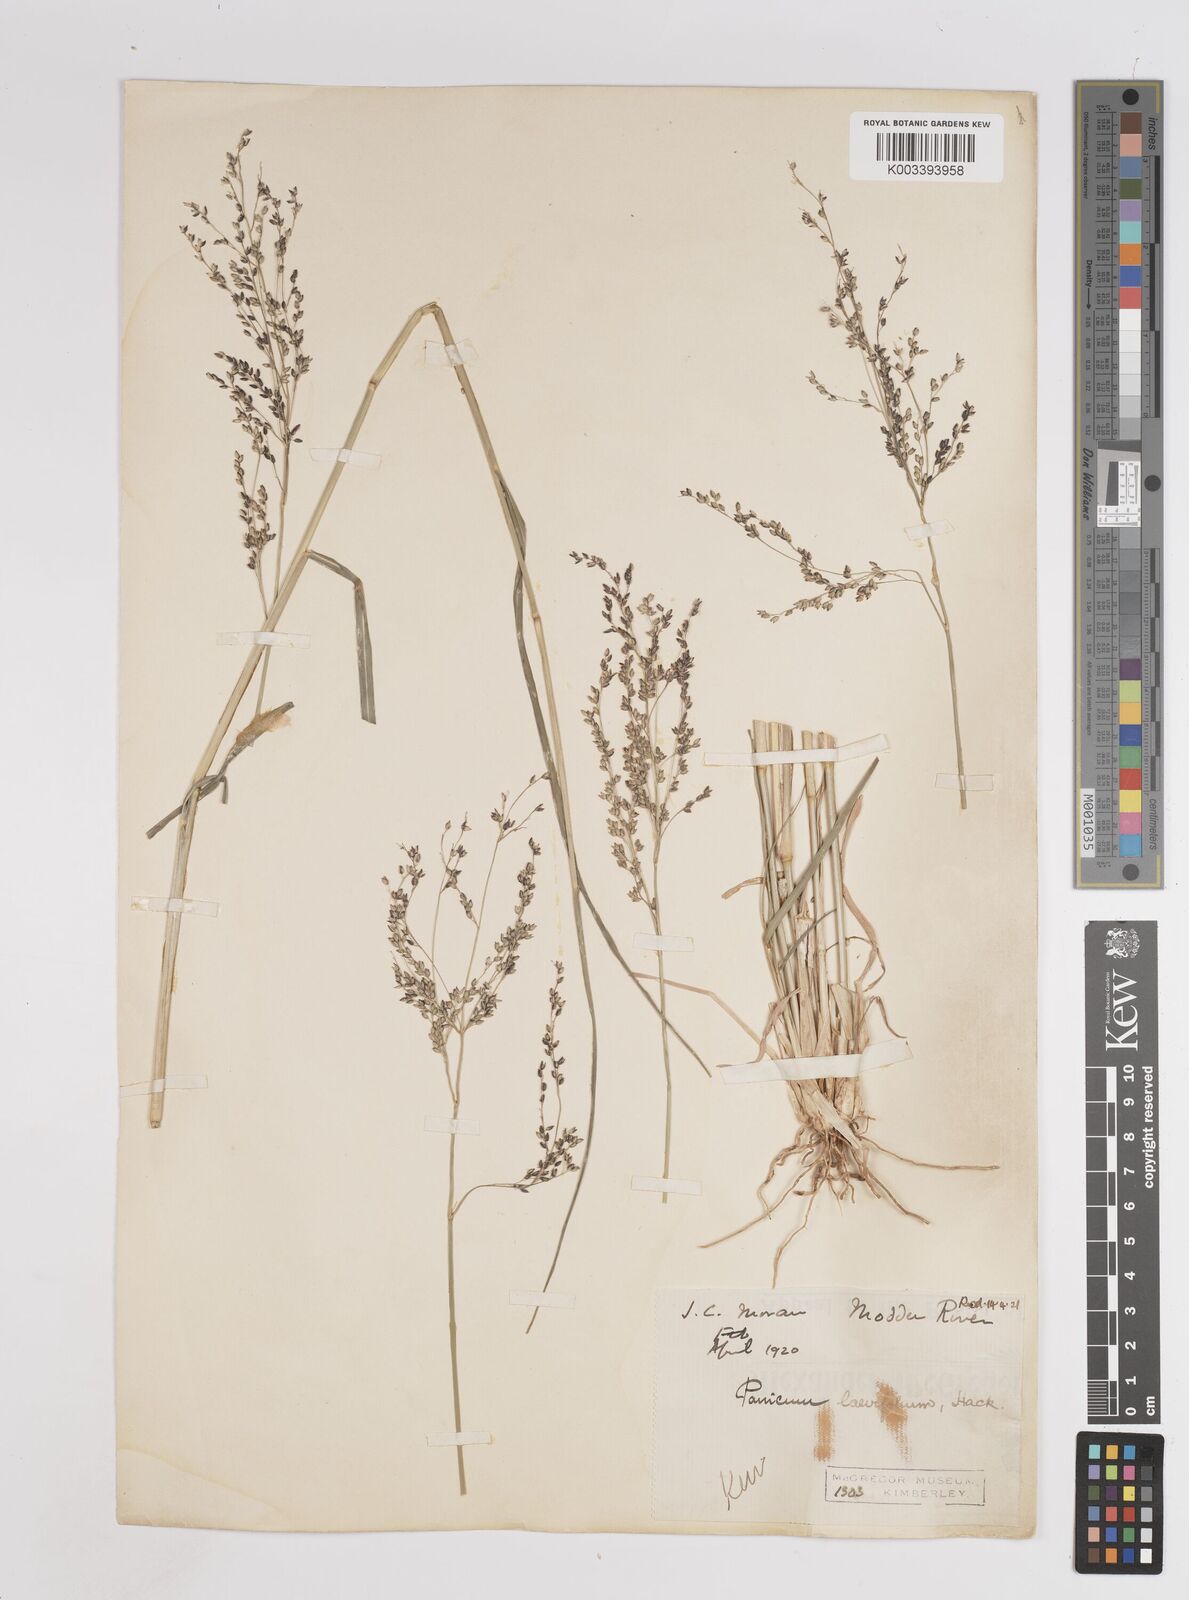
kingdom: Plantae
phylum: Tracheophyta
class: Liliopsida
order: Poales
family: Poaceae
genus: Panicum
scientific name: Panicum coloratum
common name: Kleingrass
